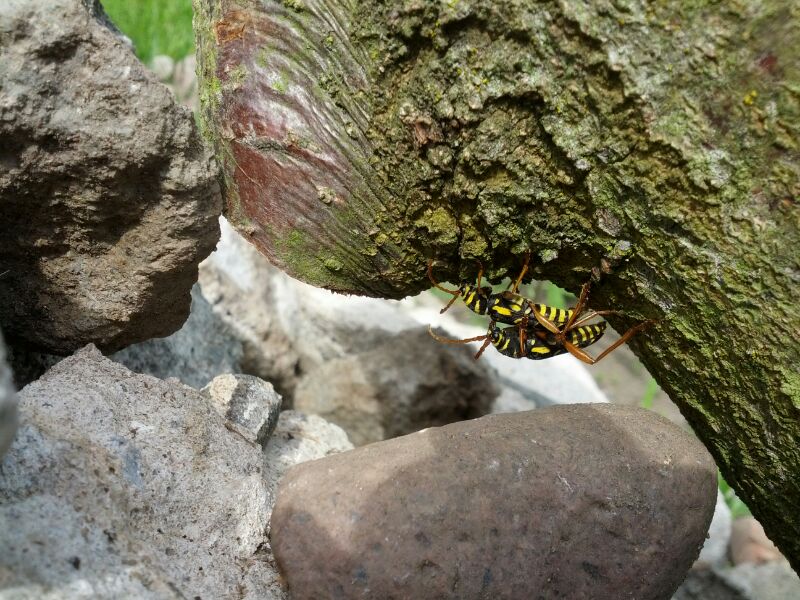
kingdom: Animalia
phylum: Arthropoda
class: Insecta
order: Coleoptera
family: Cerambycidae
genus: Plagionotus
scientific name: Plagionotus arcuatus
